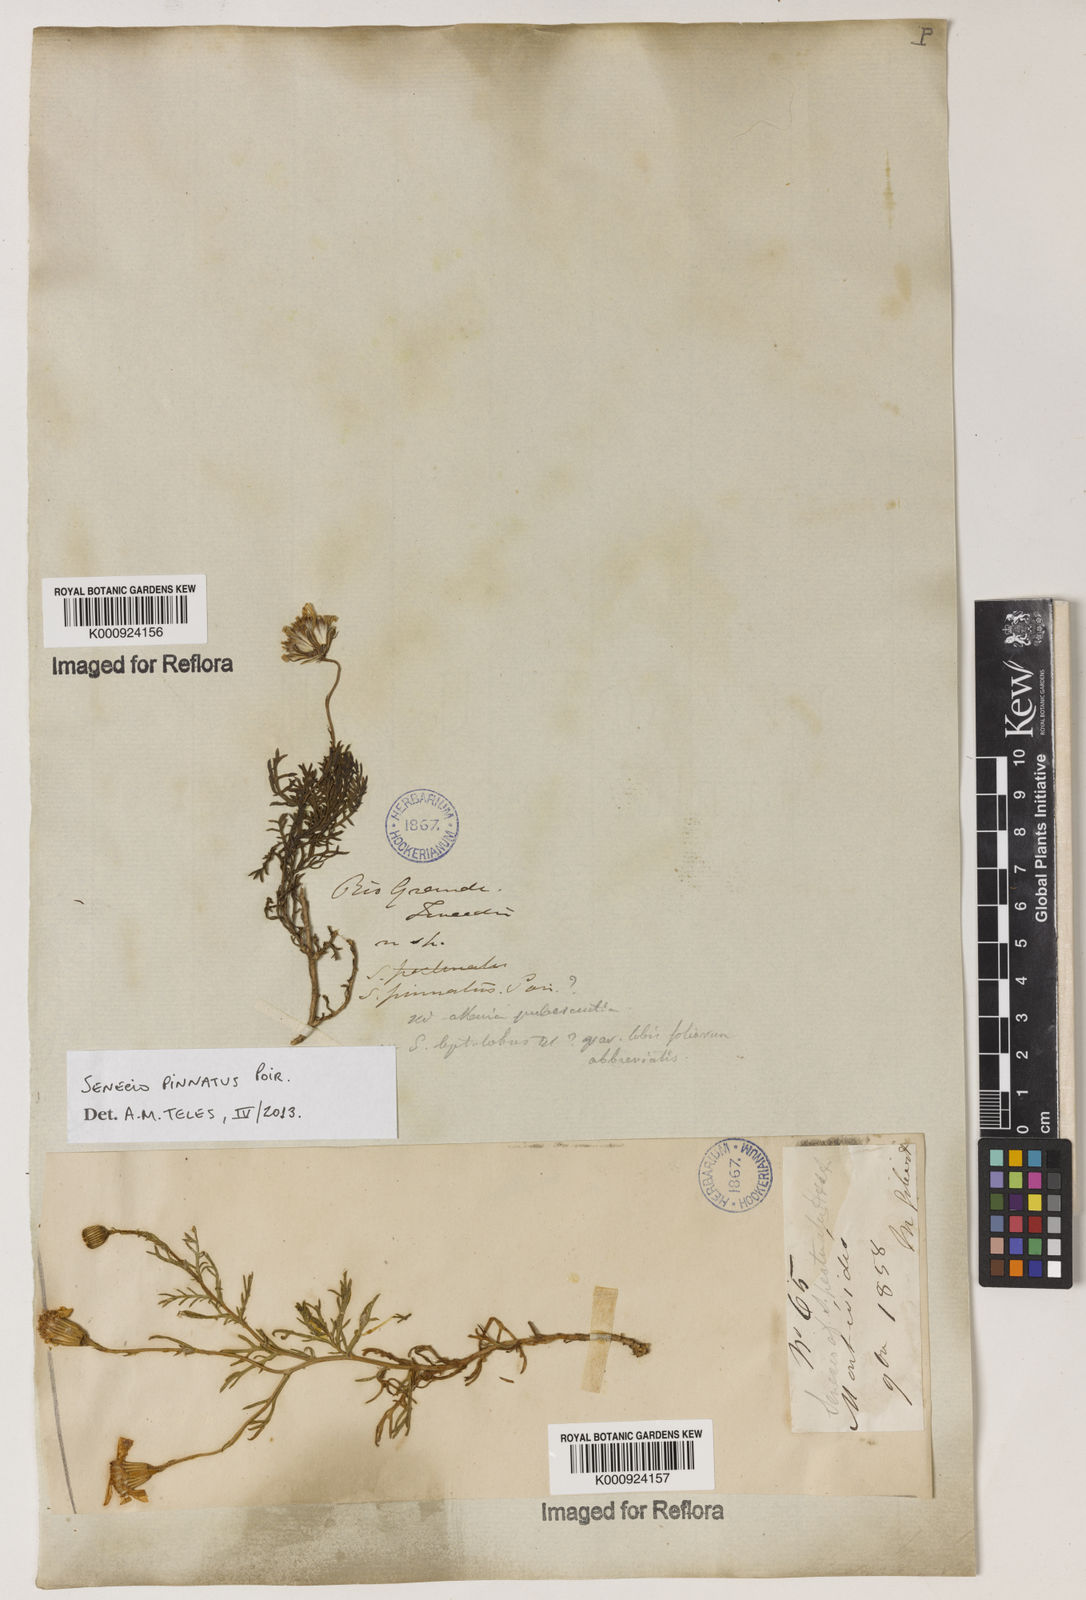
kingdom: Plantae
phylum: Tracheophyta
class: Magnoliopsida
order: Asterales
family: Asteraceae
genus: Senecio
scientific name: Senecio pinnatus
